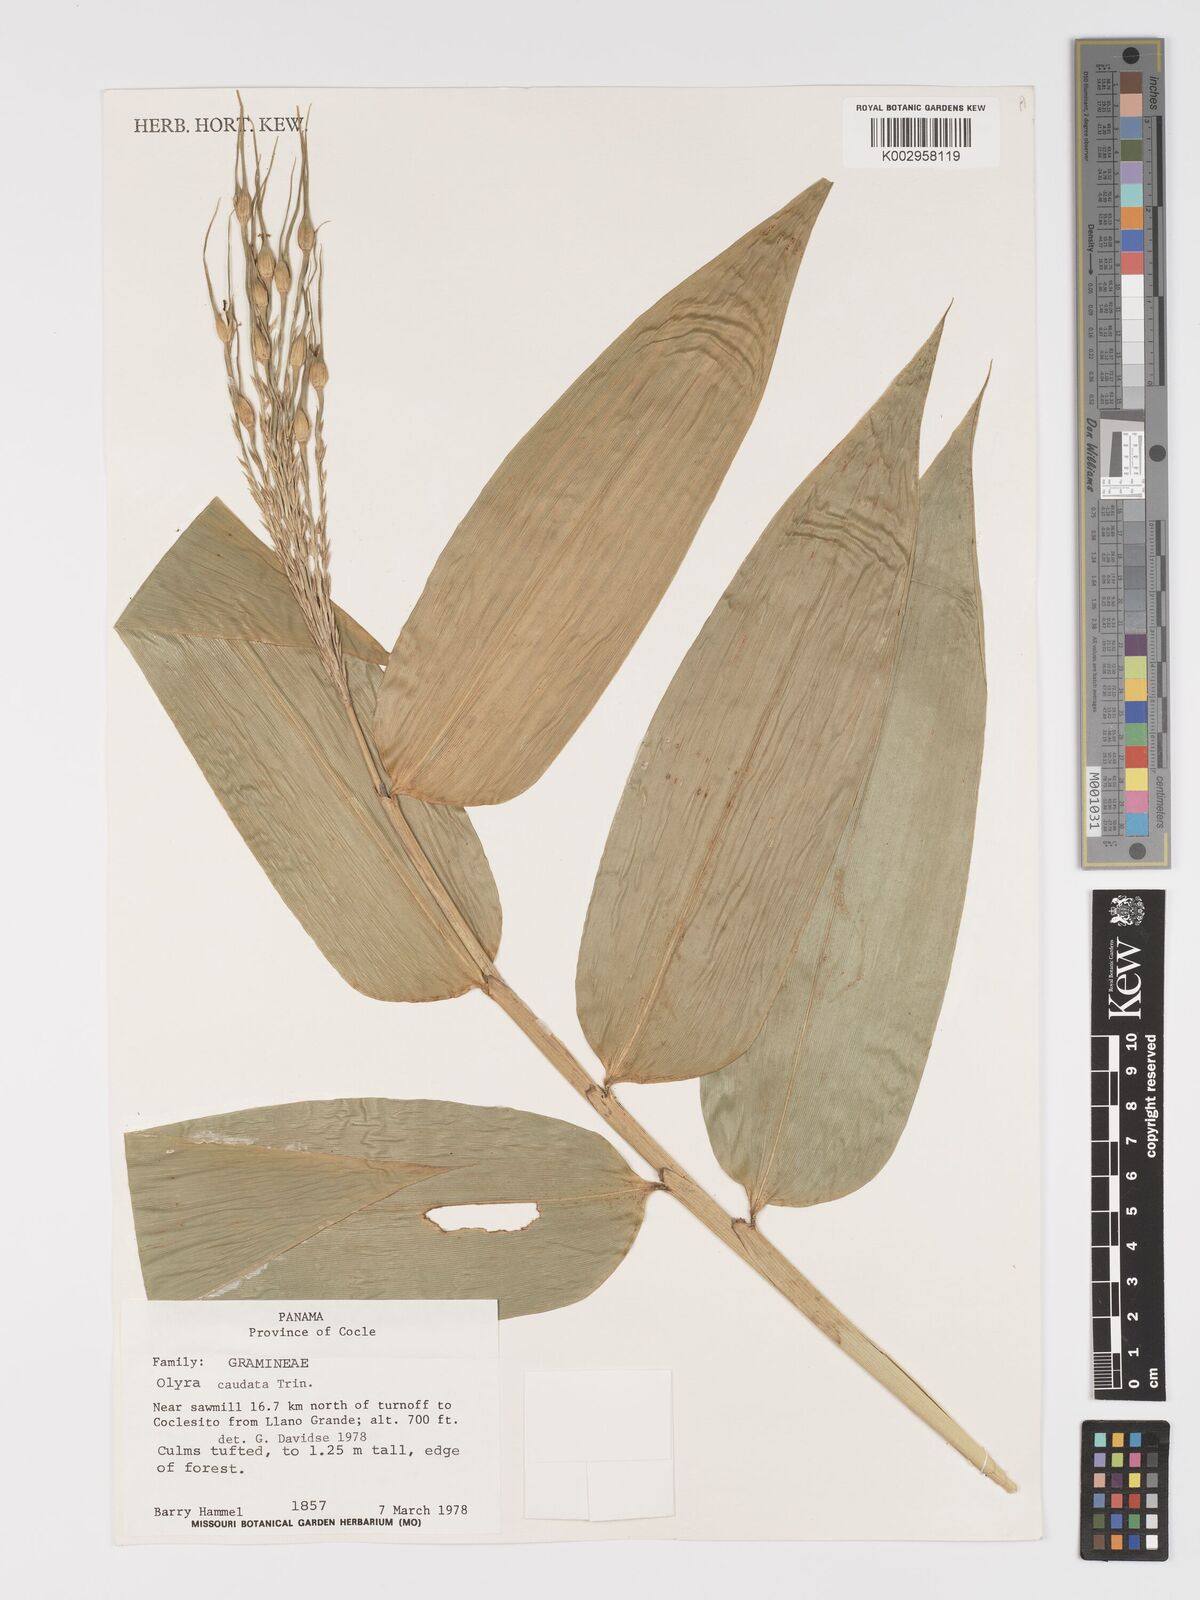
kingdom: Plantae
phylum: Tracheophyta
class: Liliopsida
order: Poales
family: Poaceae
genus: Olyra
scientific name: Olyra caudata
